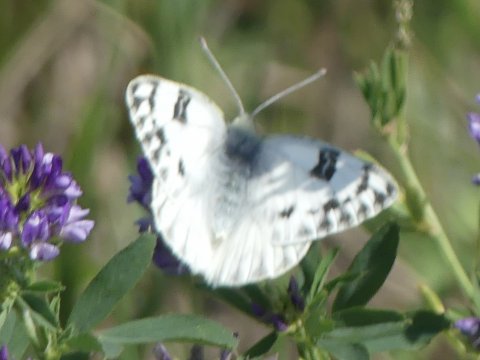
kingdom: Animalia
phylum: Arthropoda
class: Insecta
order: Lepidoptera
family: Pieridae
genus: Pontia
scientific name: Pontia occidentalis
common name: Western White
